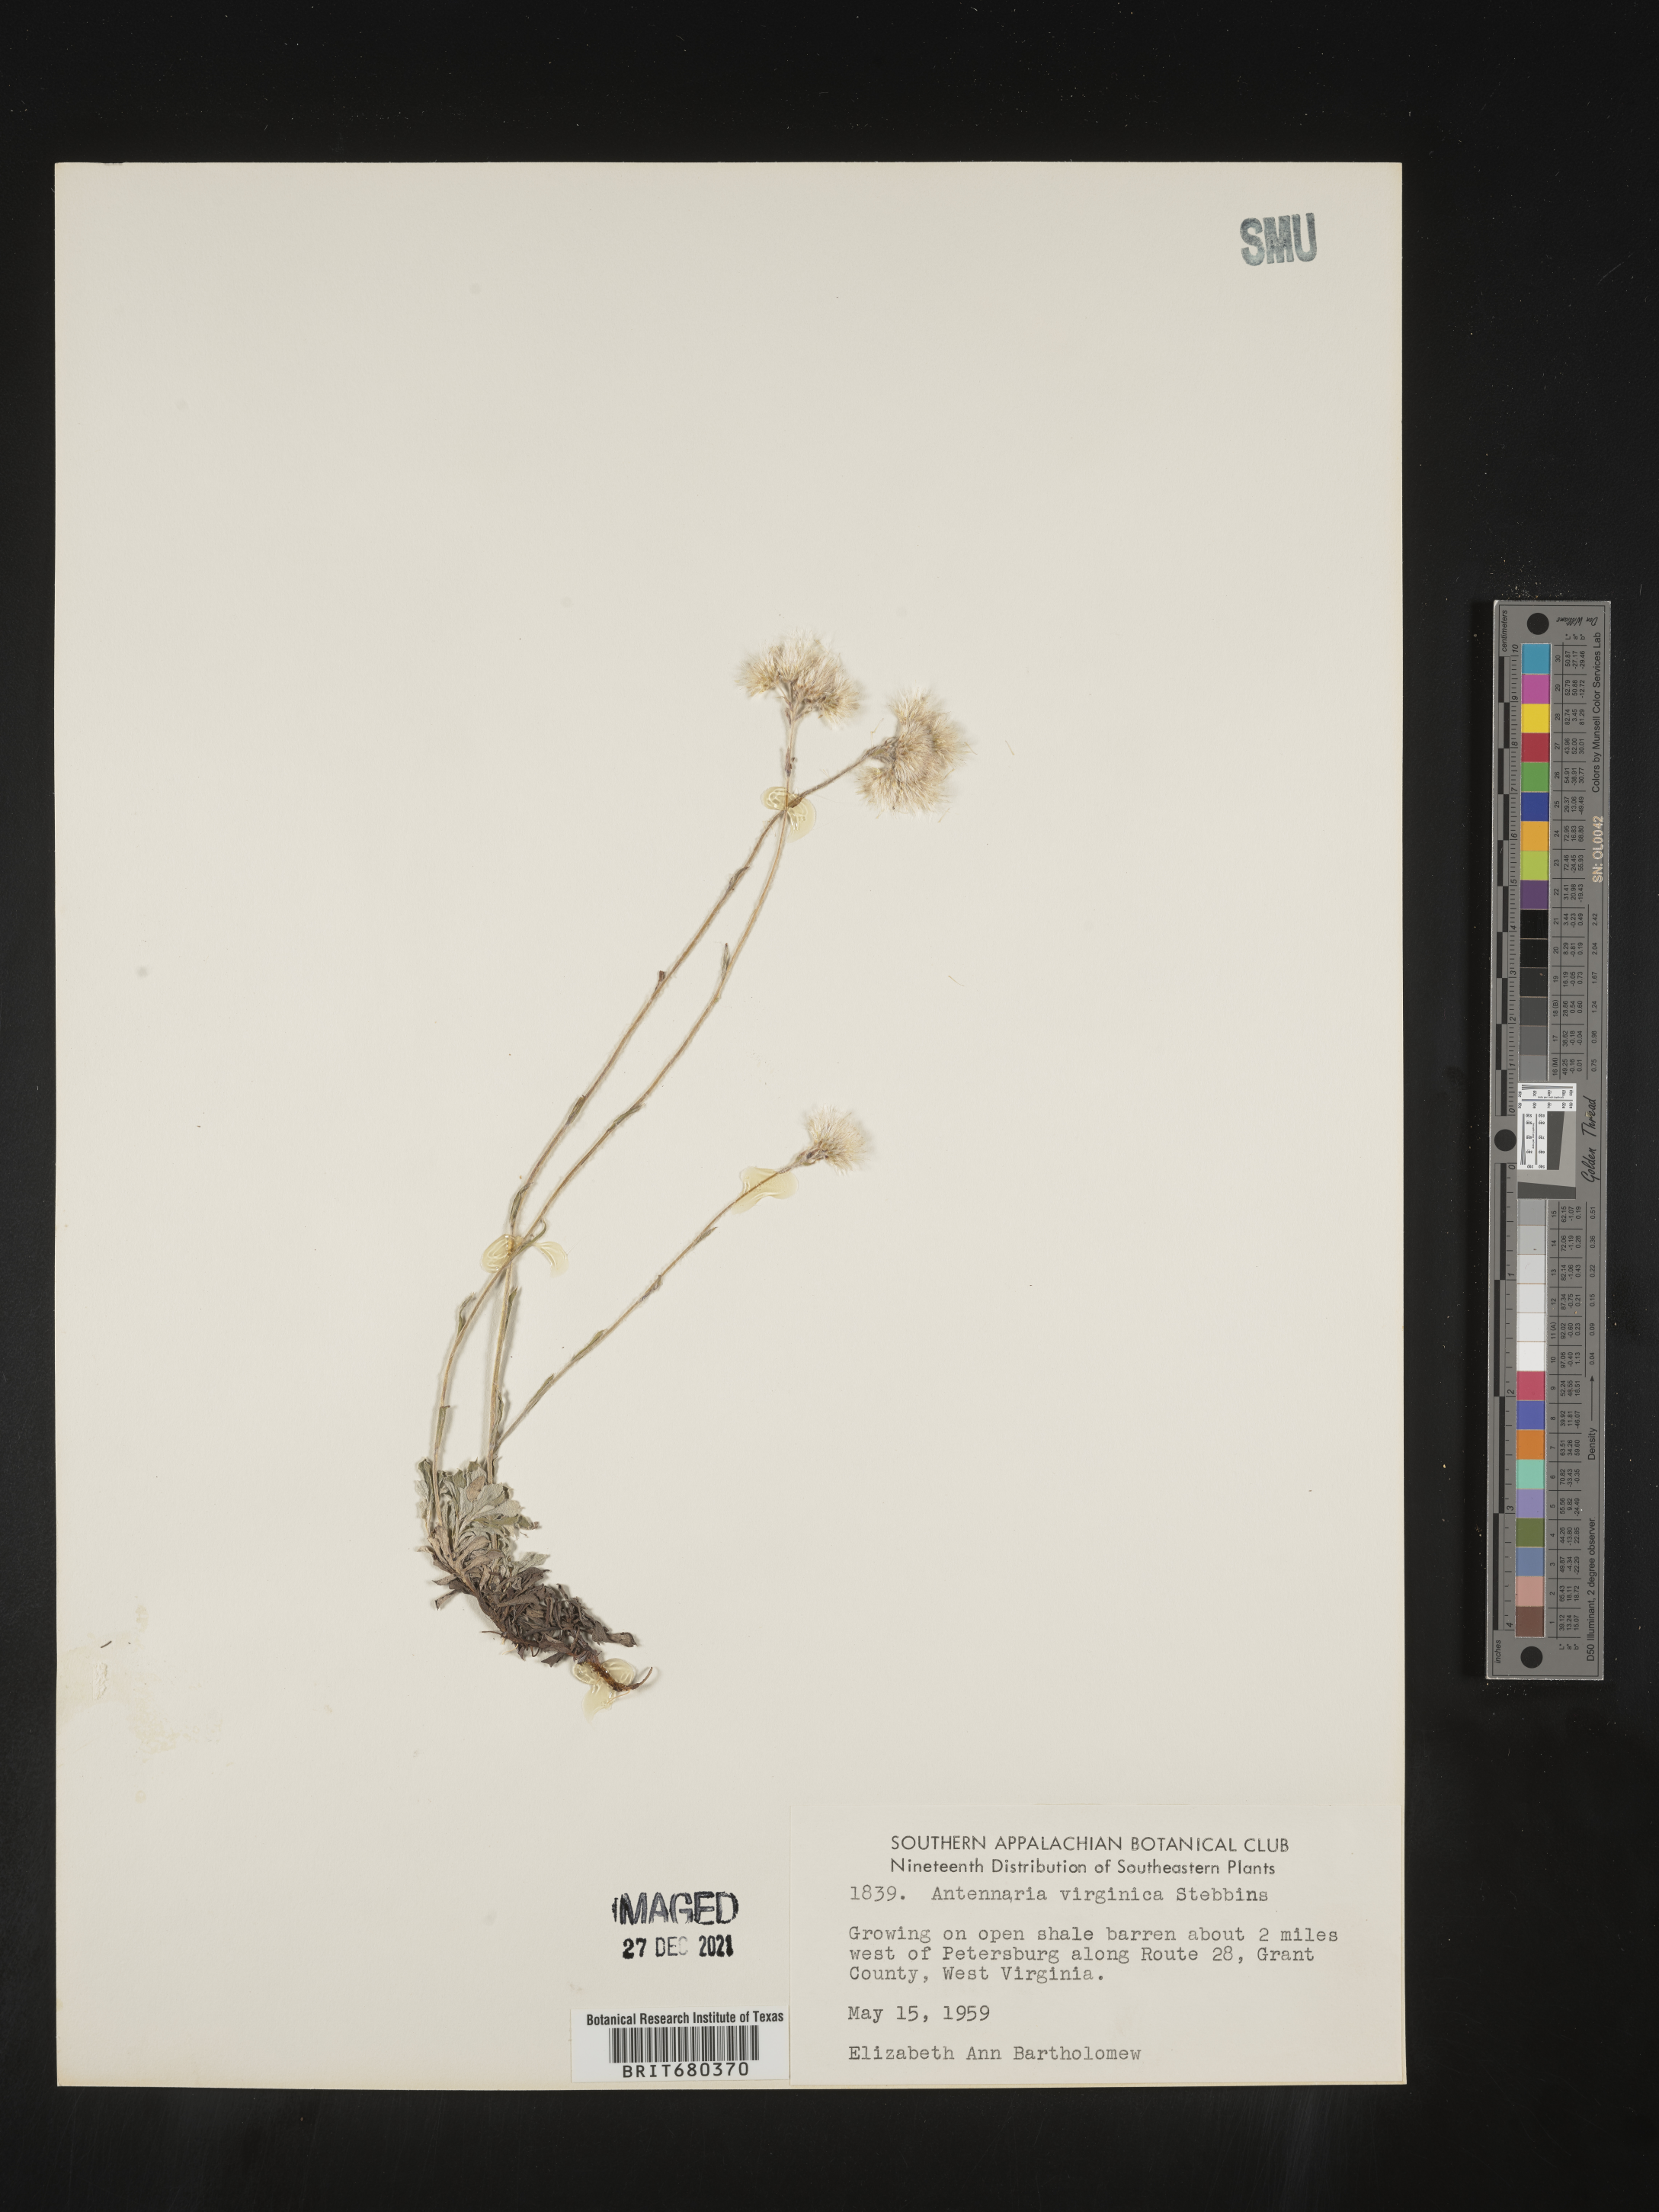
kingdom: Plantae
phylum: Tracheophyta
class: Magnoliopsida
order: Asterales
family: Asteraceae
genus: Antennaria
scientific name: Antennaria virginica
